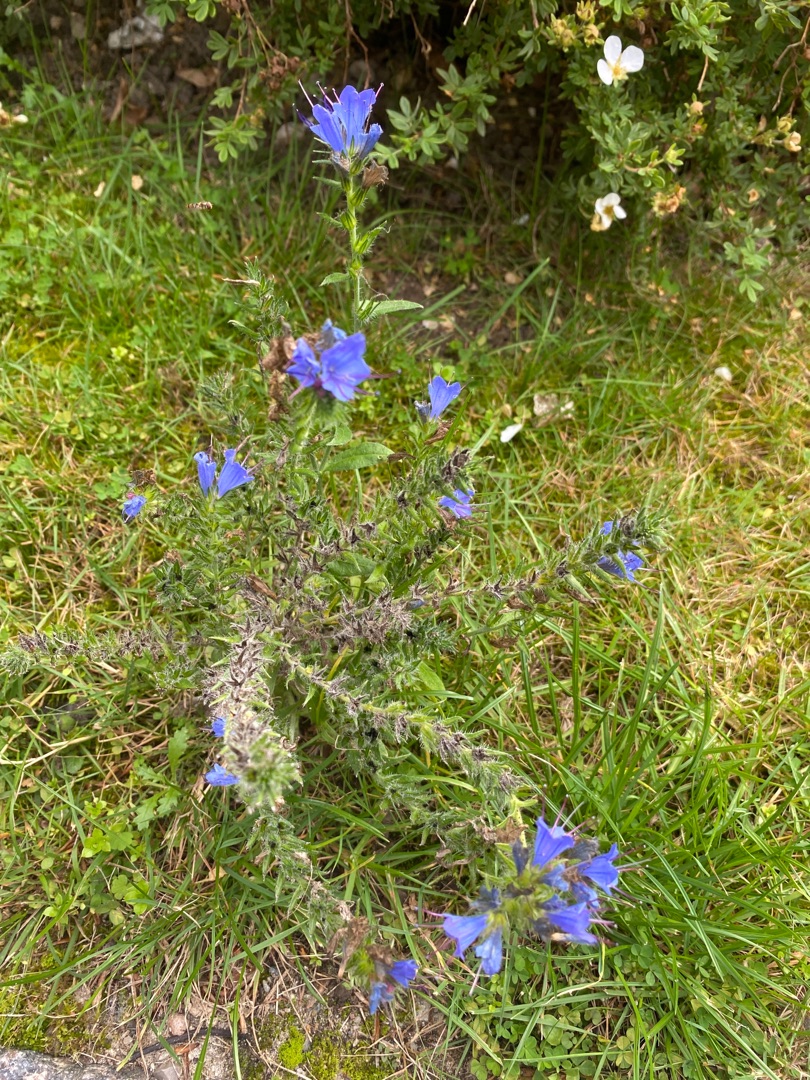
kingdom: Plantae
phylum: Tracheophyta
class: Magnoliopsida
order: Boraginales
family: Boraginaceae
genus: Echium
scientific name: Echium vulgare
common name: Slangehoved
